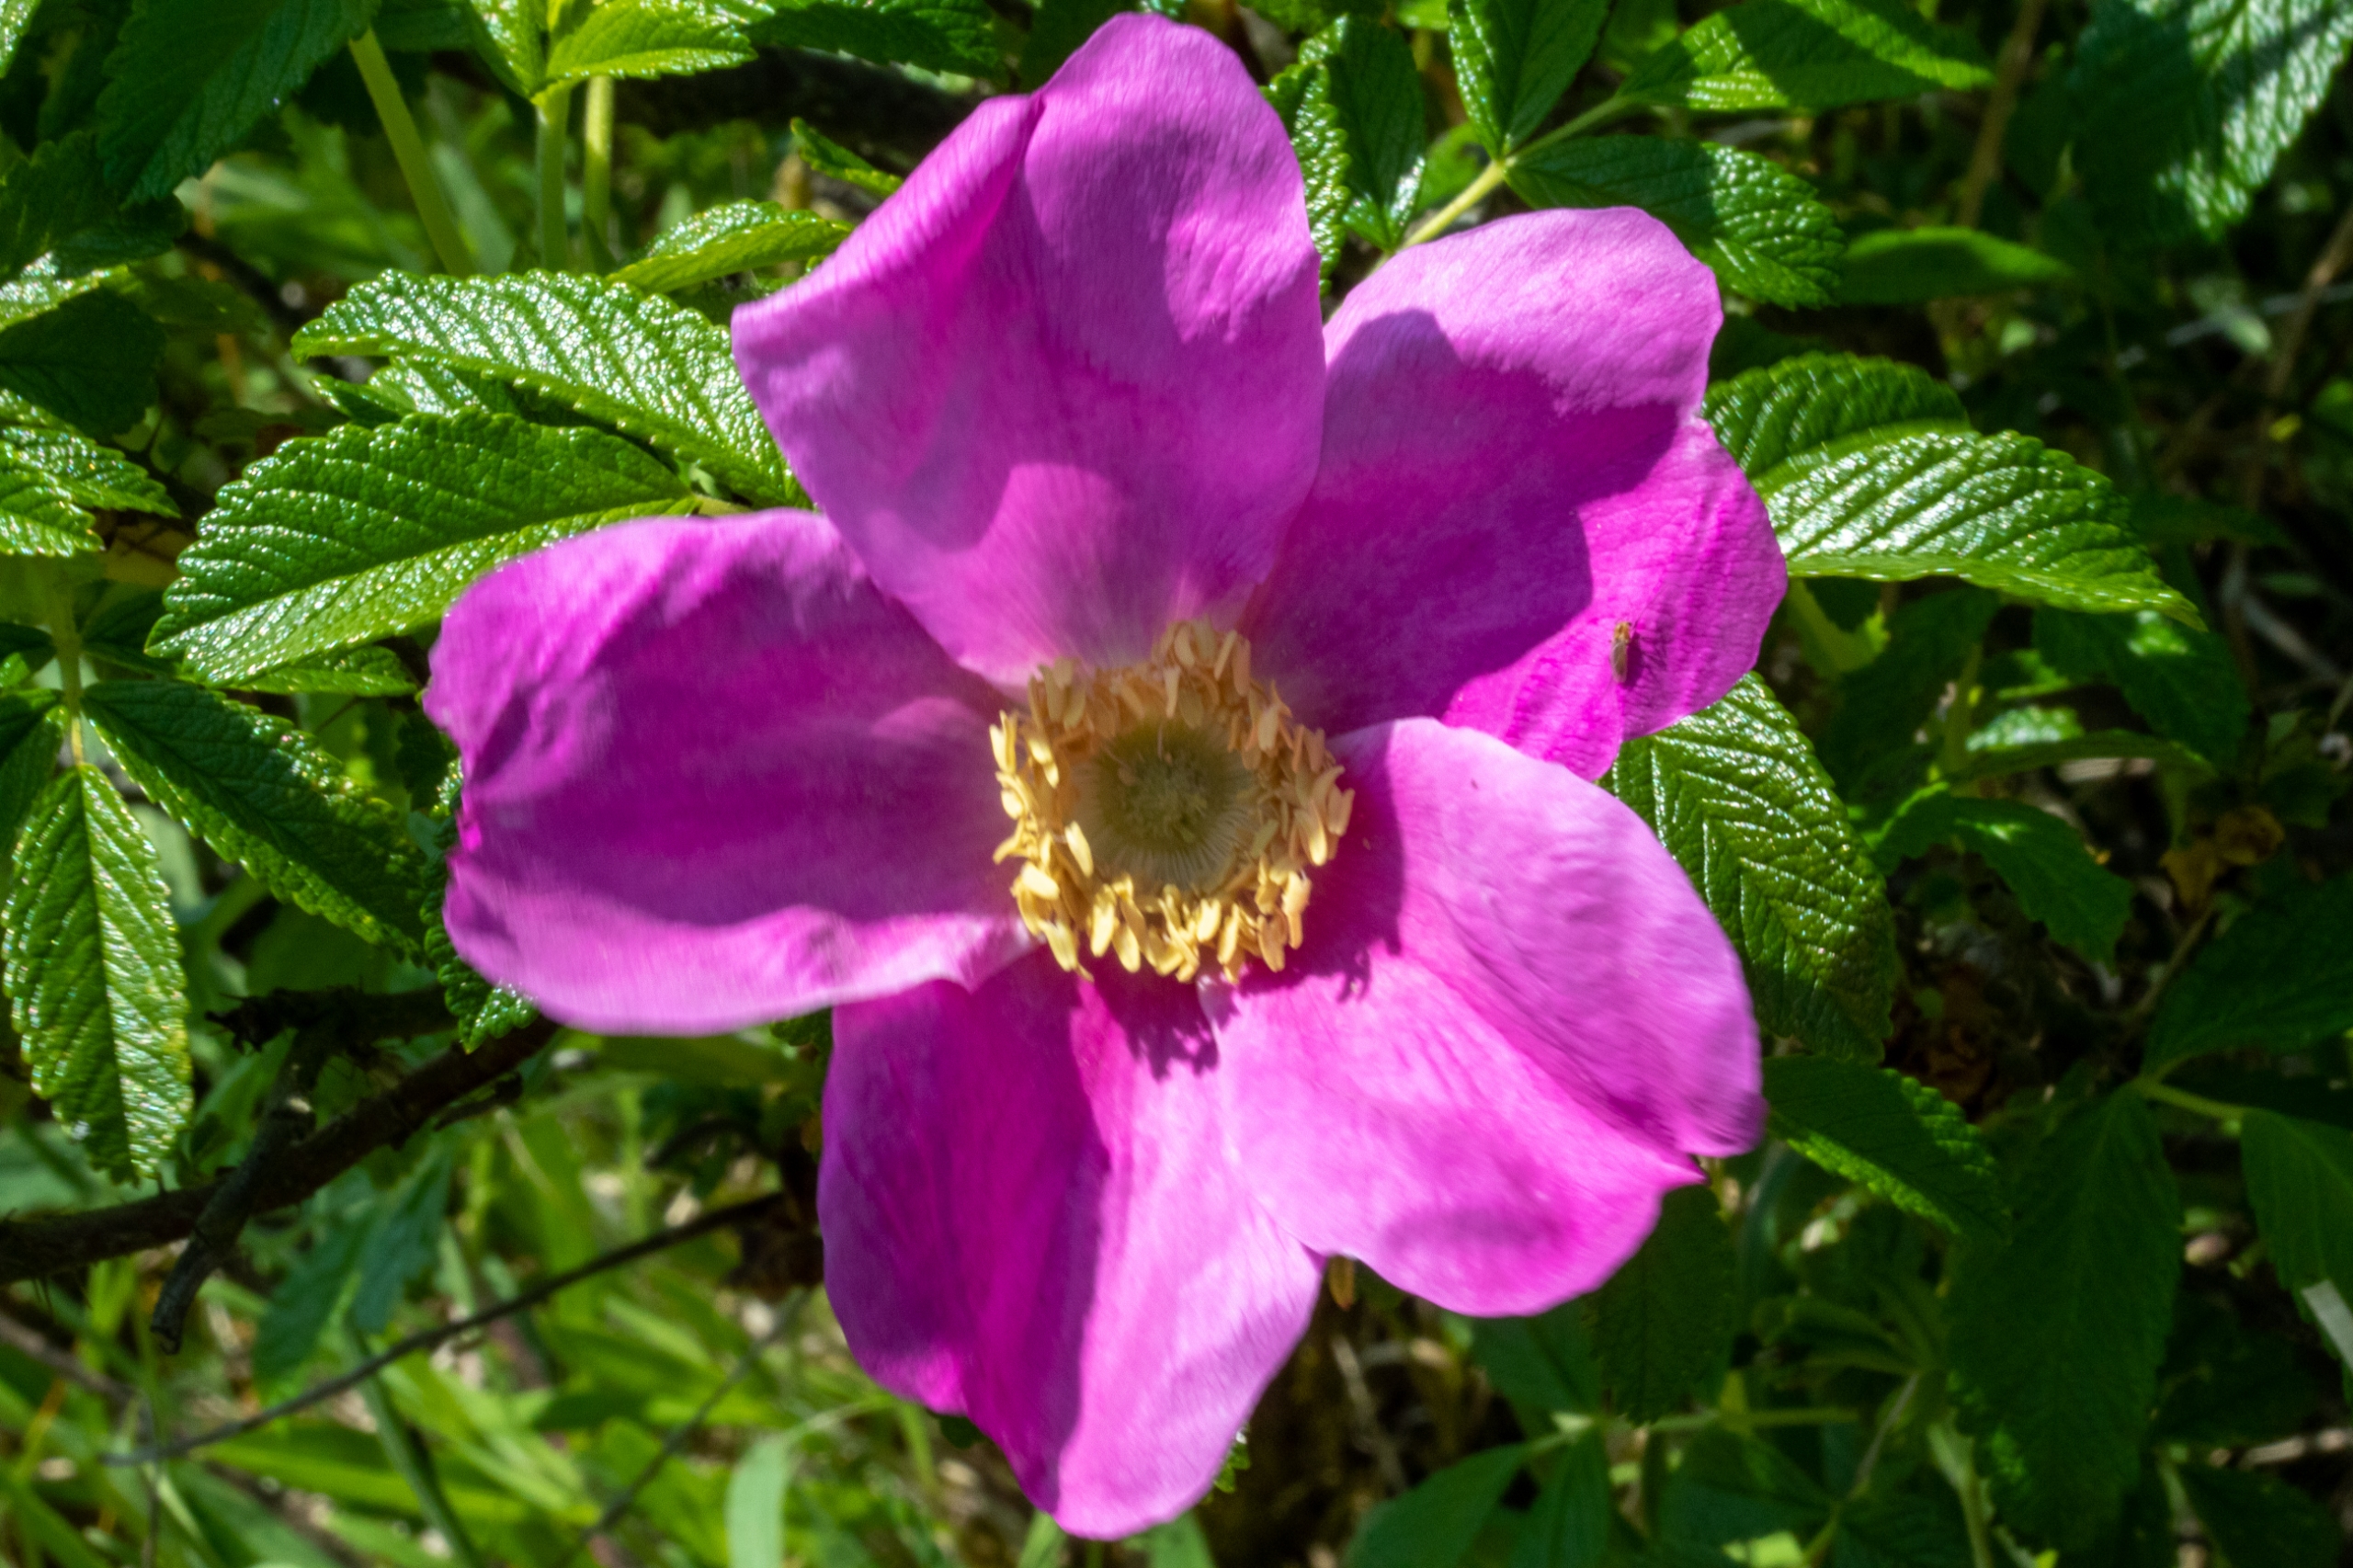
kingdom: Plantae
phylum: Tracheophyta
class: Magnoliopsida
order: Rosales
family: Rosaceae
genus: Rosa
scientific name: Rosa rugosa
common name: Rynket rose
